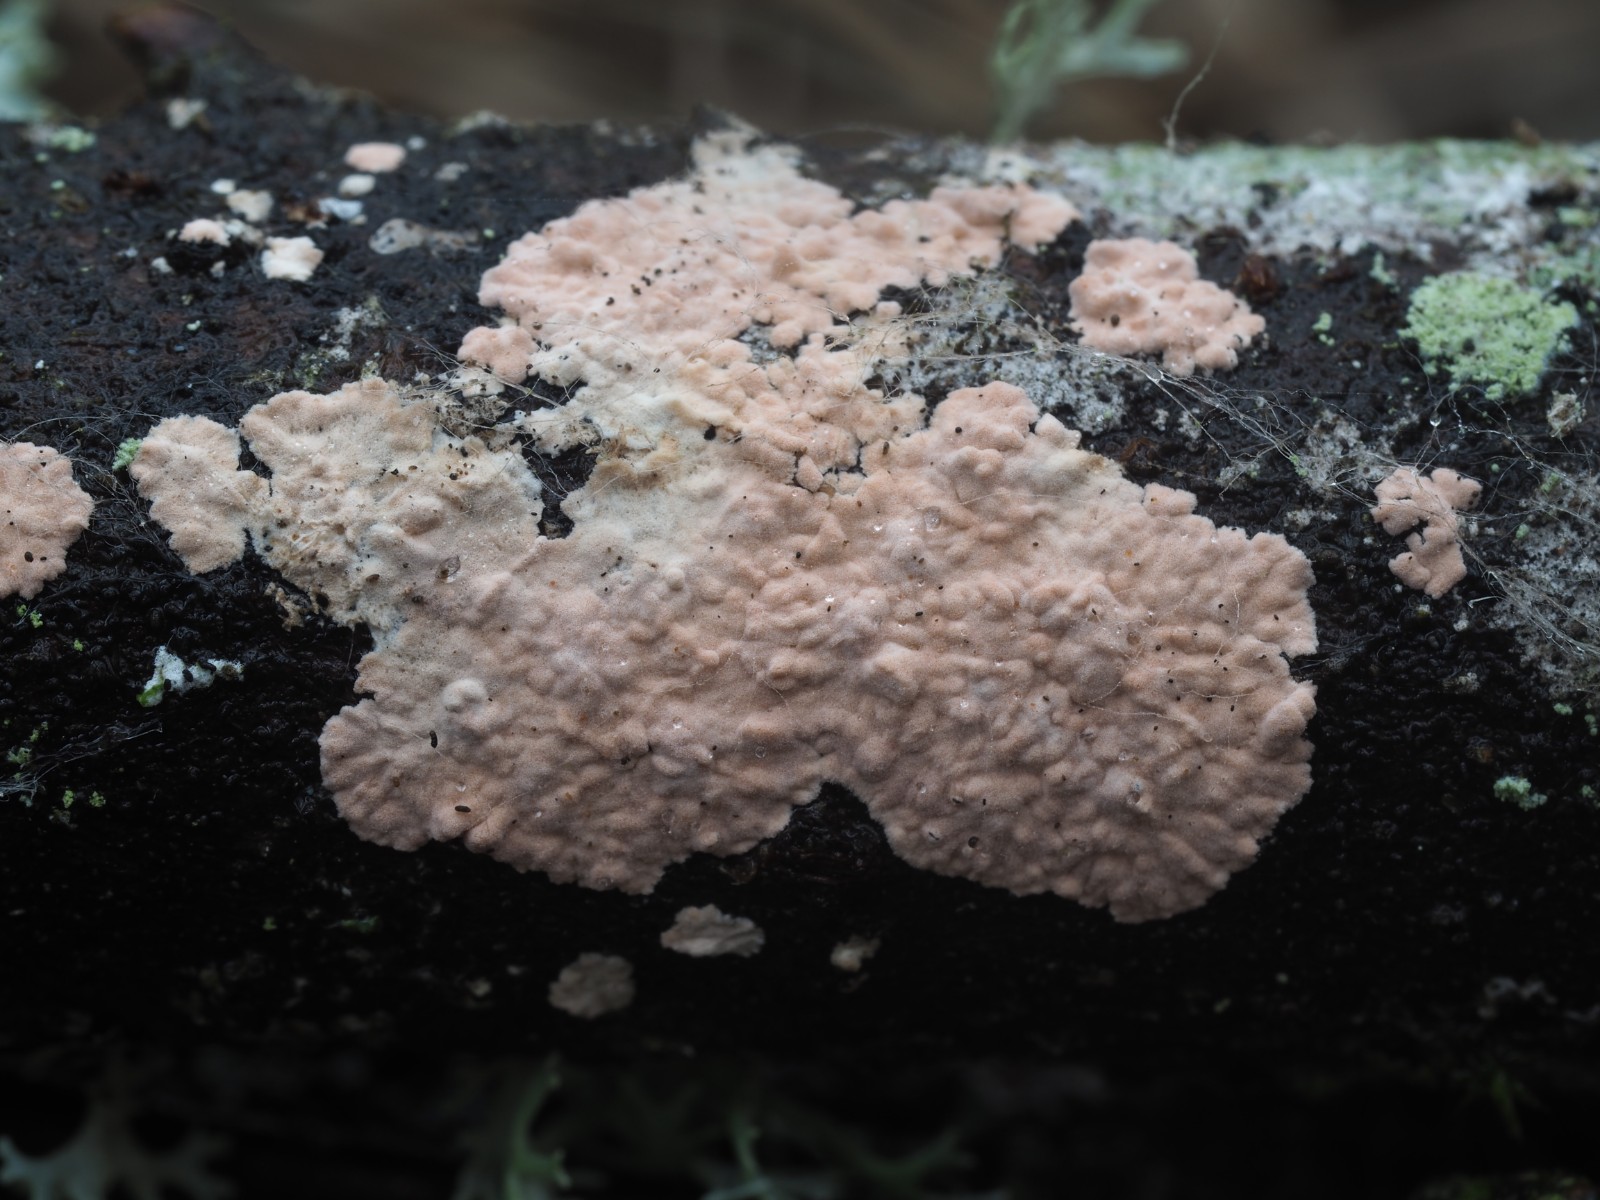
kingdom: Fungi
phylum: Basidiomycota
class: Agaricomycetes
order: Corticiales
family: Corticiaceae
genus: Corticium
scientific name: Corticium roseum
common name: rosa barkskind
